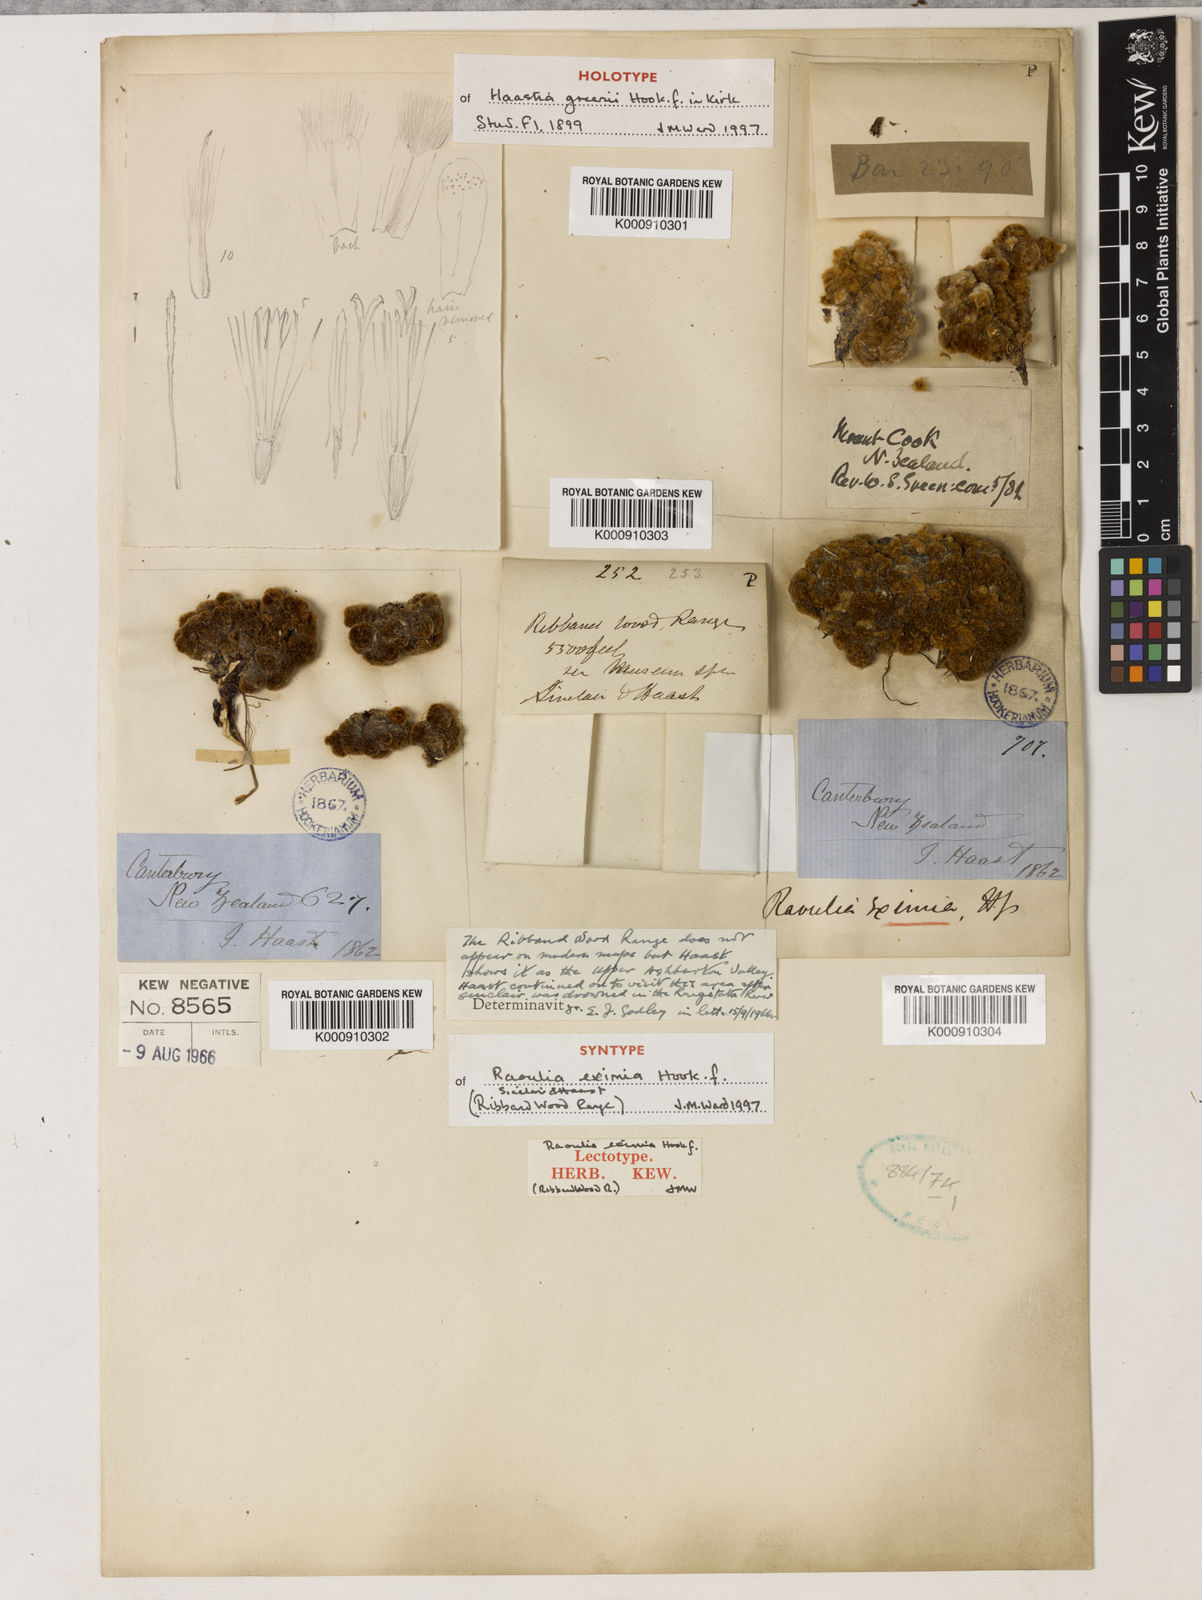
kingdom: Plantae
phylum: Tracheophyta
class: Magnoliopsida
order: Asterales
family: Asteraceae
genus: Raoulia
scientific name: Raoulia eximia
